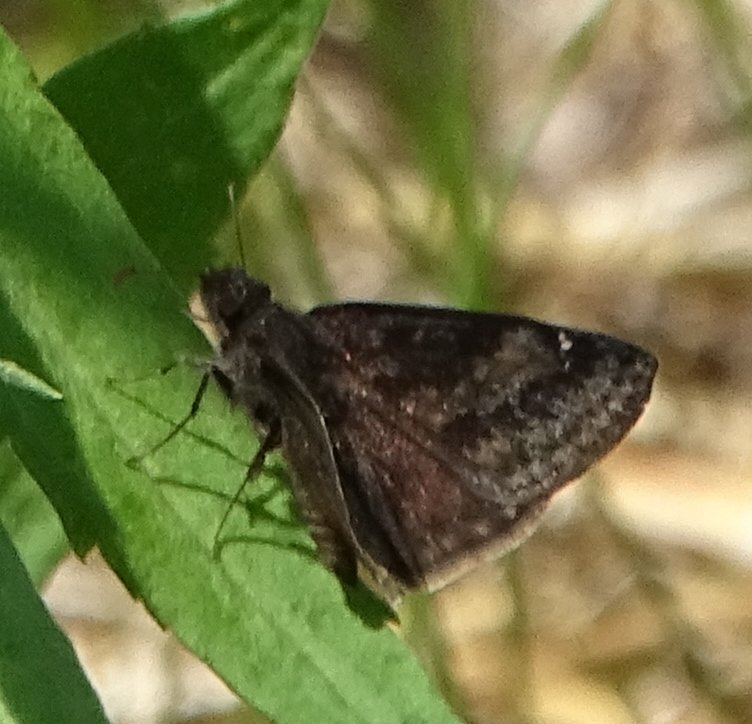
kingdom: Animalia
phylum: Arthropoda
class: Insecta
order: Lepidoptera
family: Hesperiidae
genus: Gesta
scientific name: Gesta
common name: Wild Indigo Duskywing
